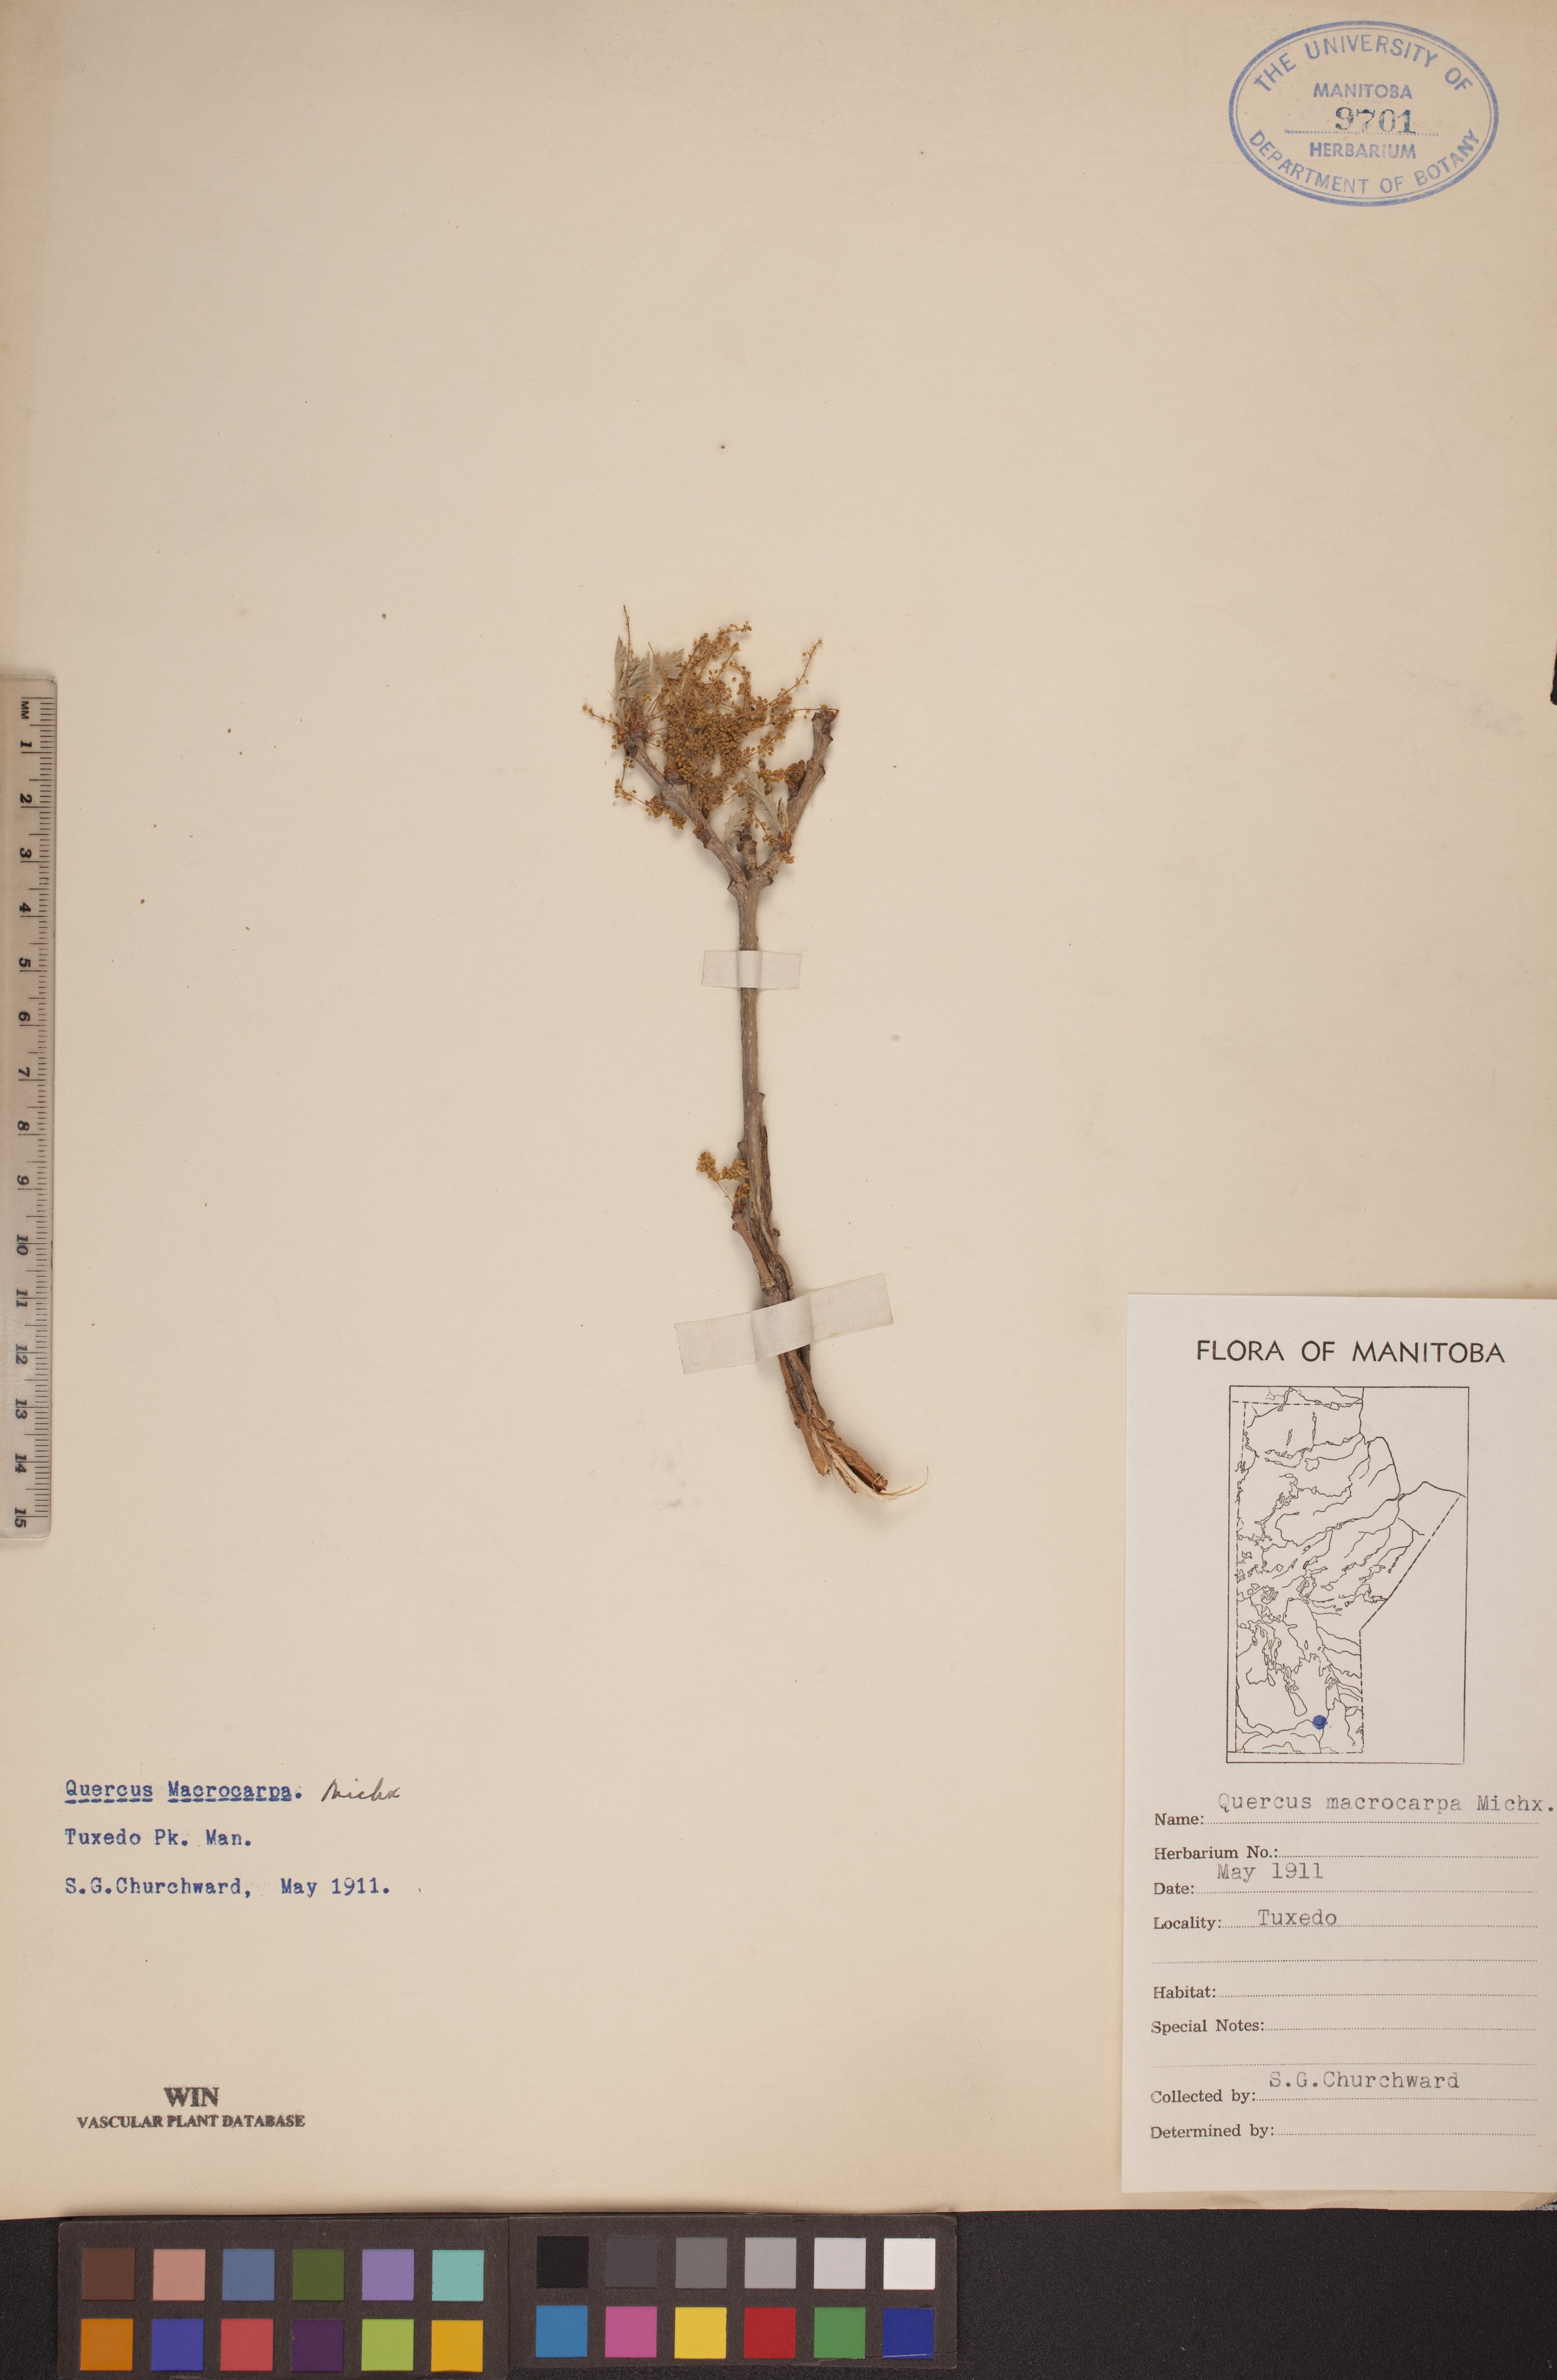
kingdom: Plantae
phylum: Tracheophyta
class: Magnoliopsida
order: Fagales
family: Fagaceae
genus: Quercus
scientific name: Quercus macrocarpa
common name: Bur oak
